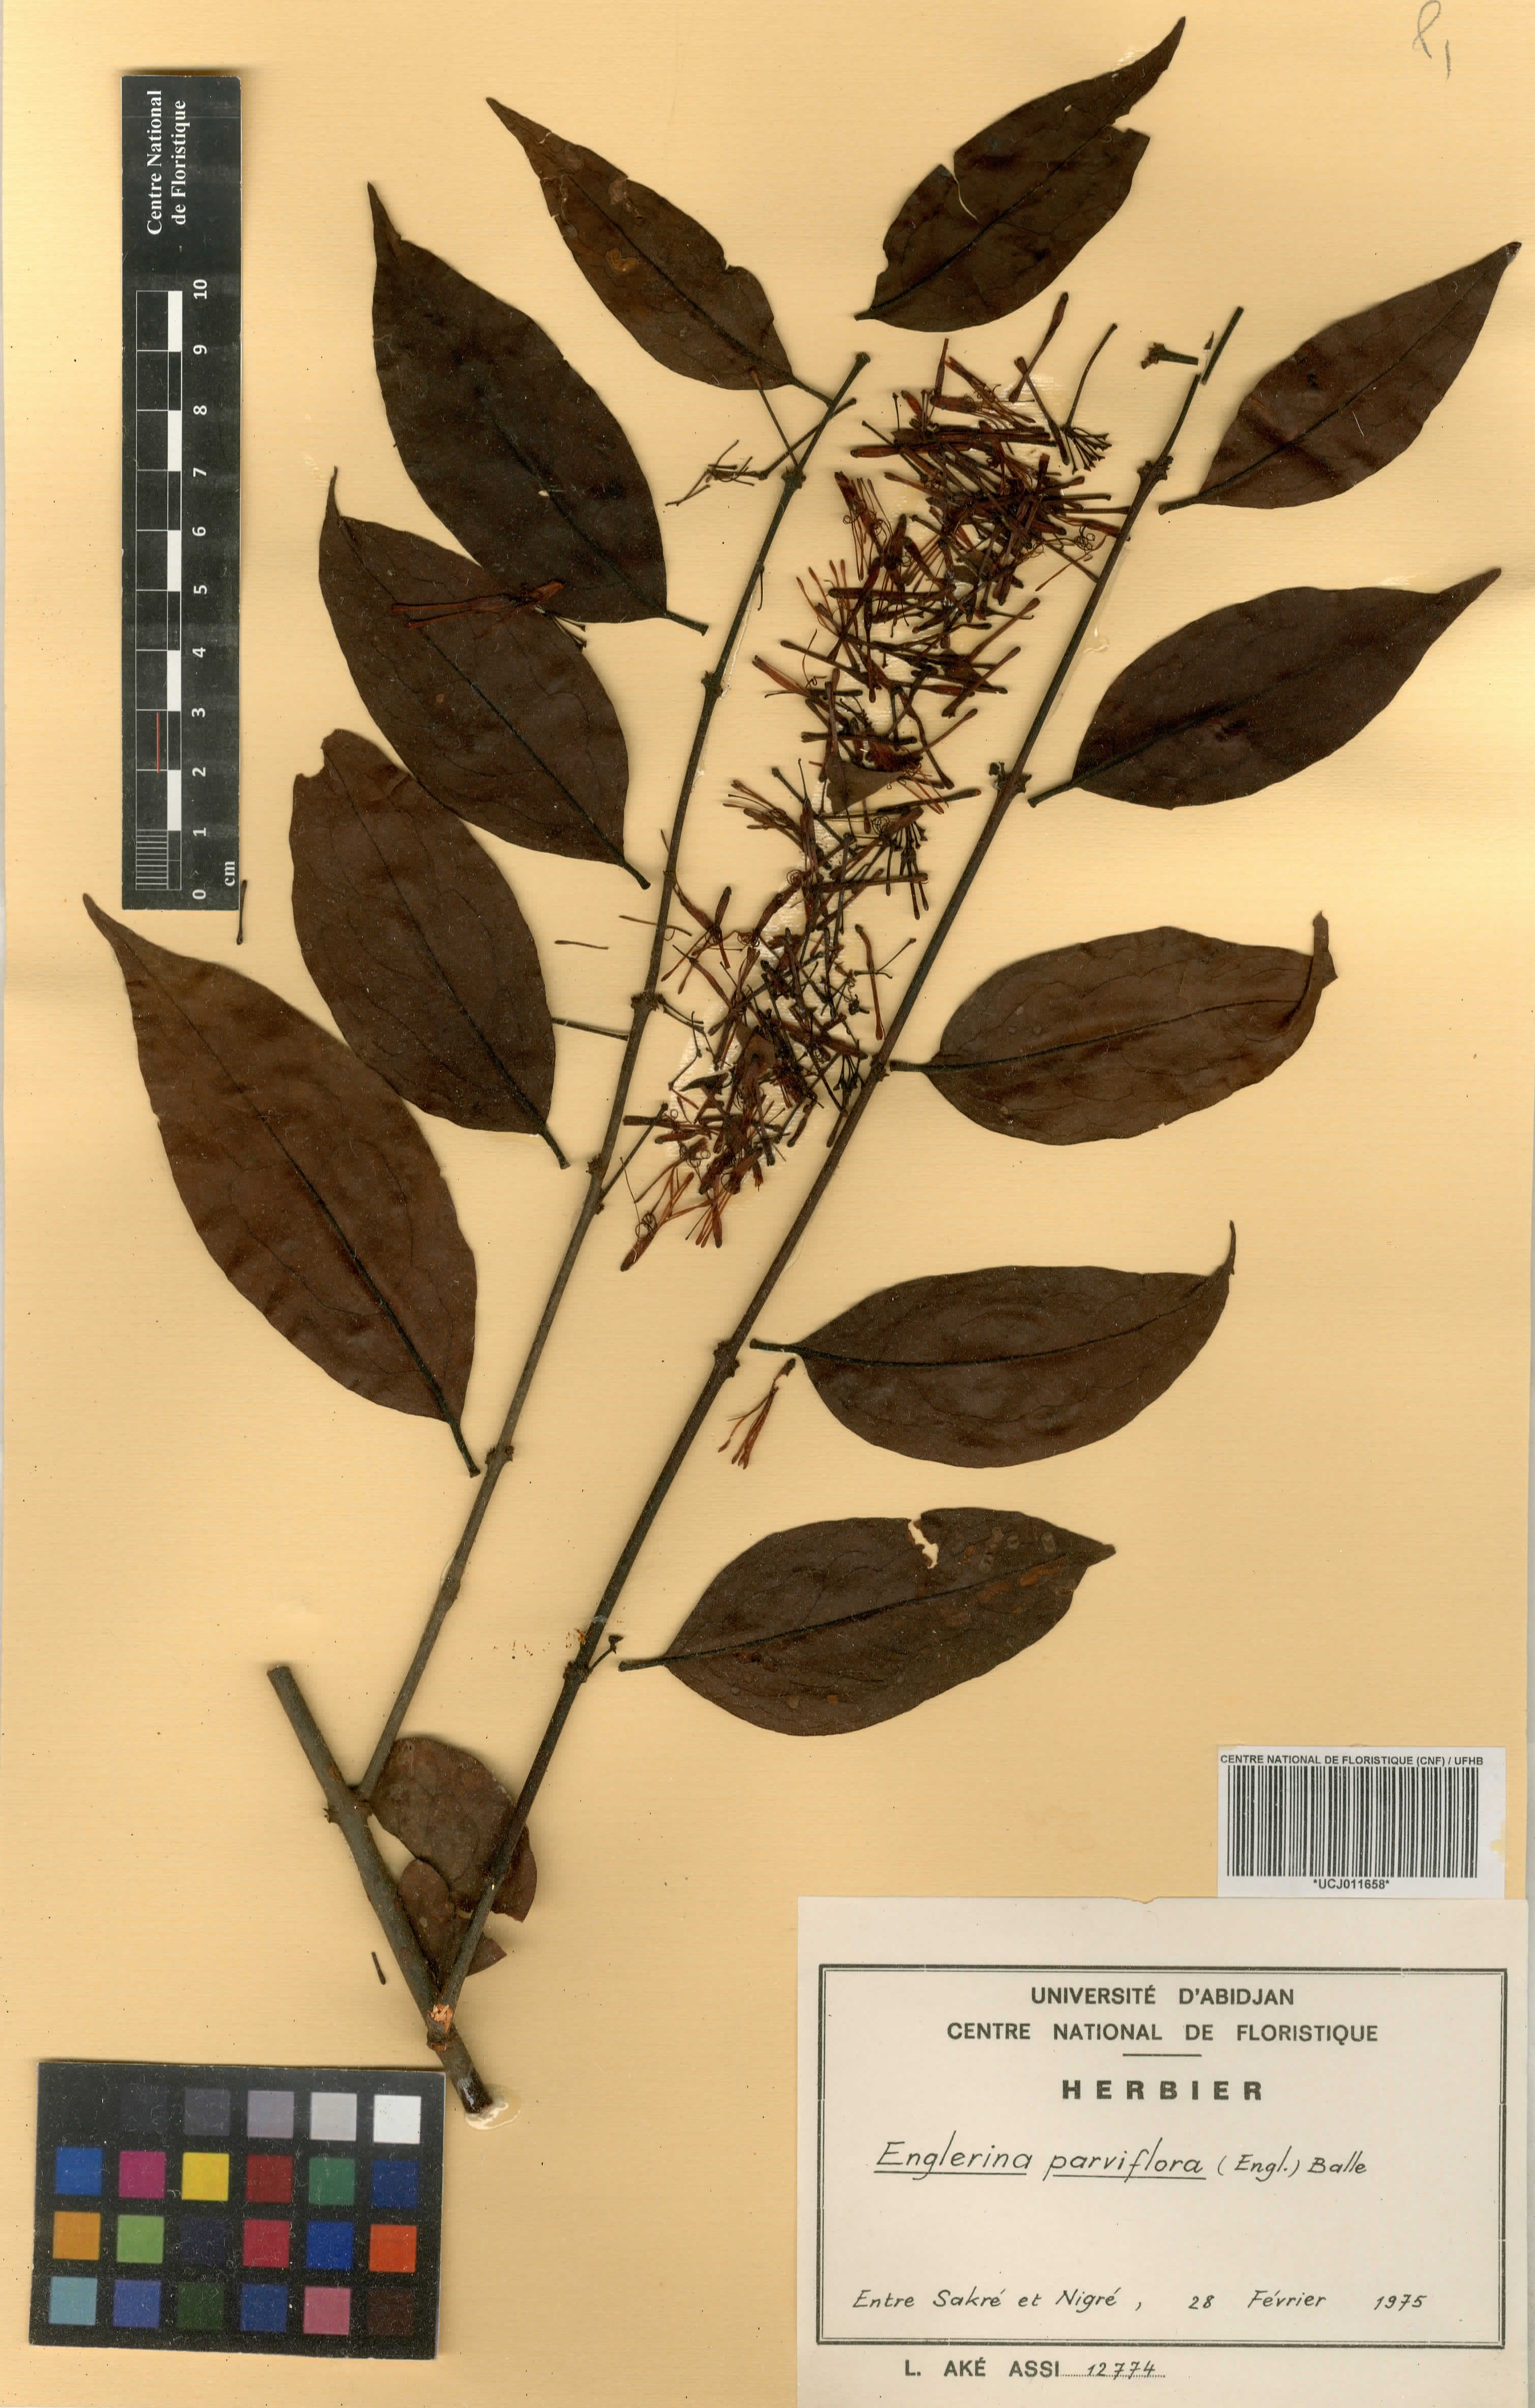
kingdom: Plantae
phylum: Tracheophyta
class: Magnoliopsida
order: Santalales
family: Loranthaceae
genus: Englerina
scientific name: Englerina parviflora
